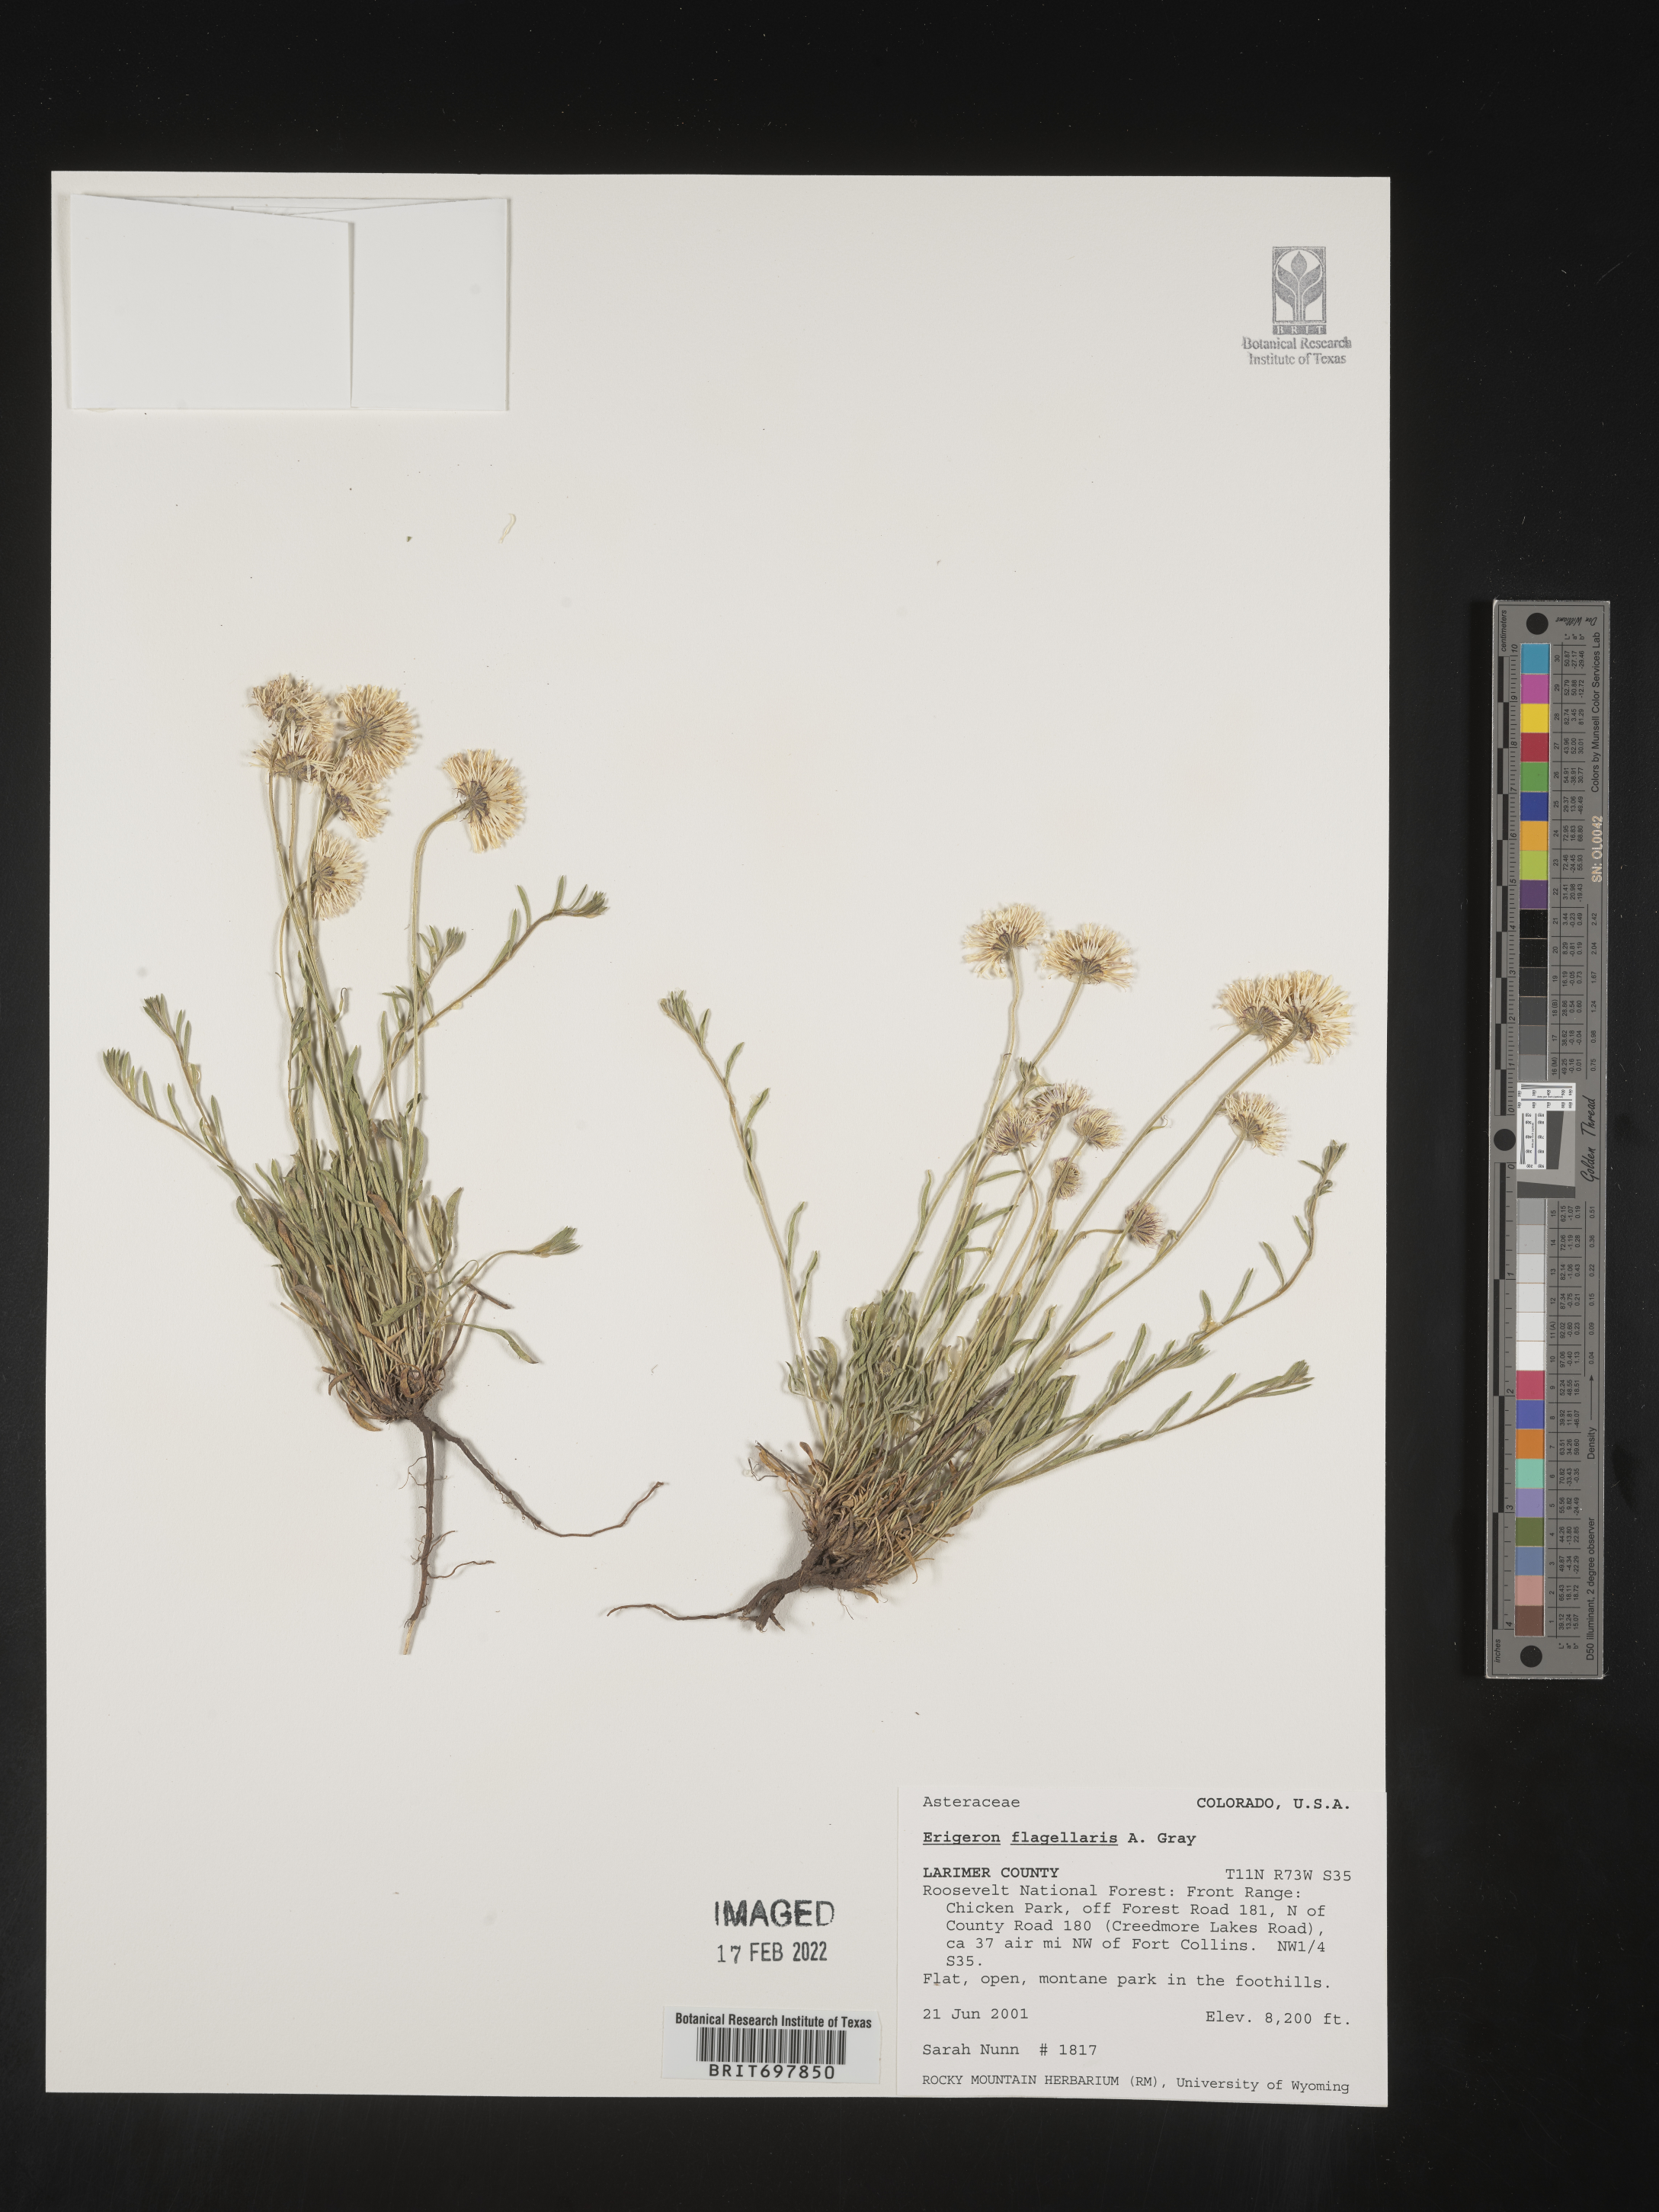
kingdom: Plantae
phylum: Tracheophyta
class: Magnoliopsida
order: Asterales
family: Asteraceae
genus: Erigeron
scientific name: Erigeron flagellaris
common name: Running fleabane
